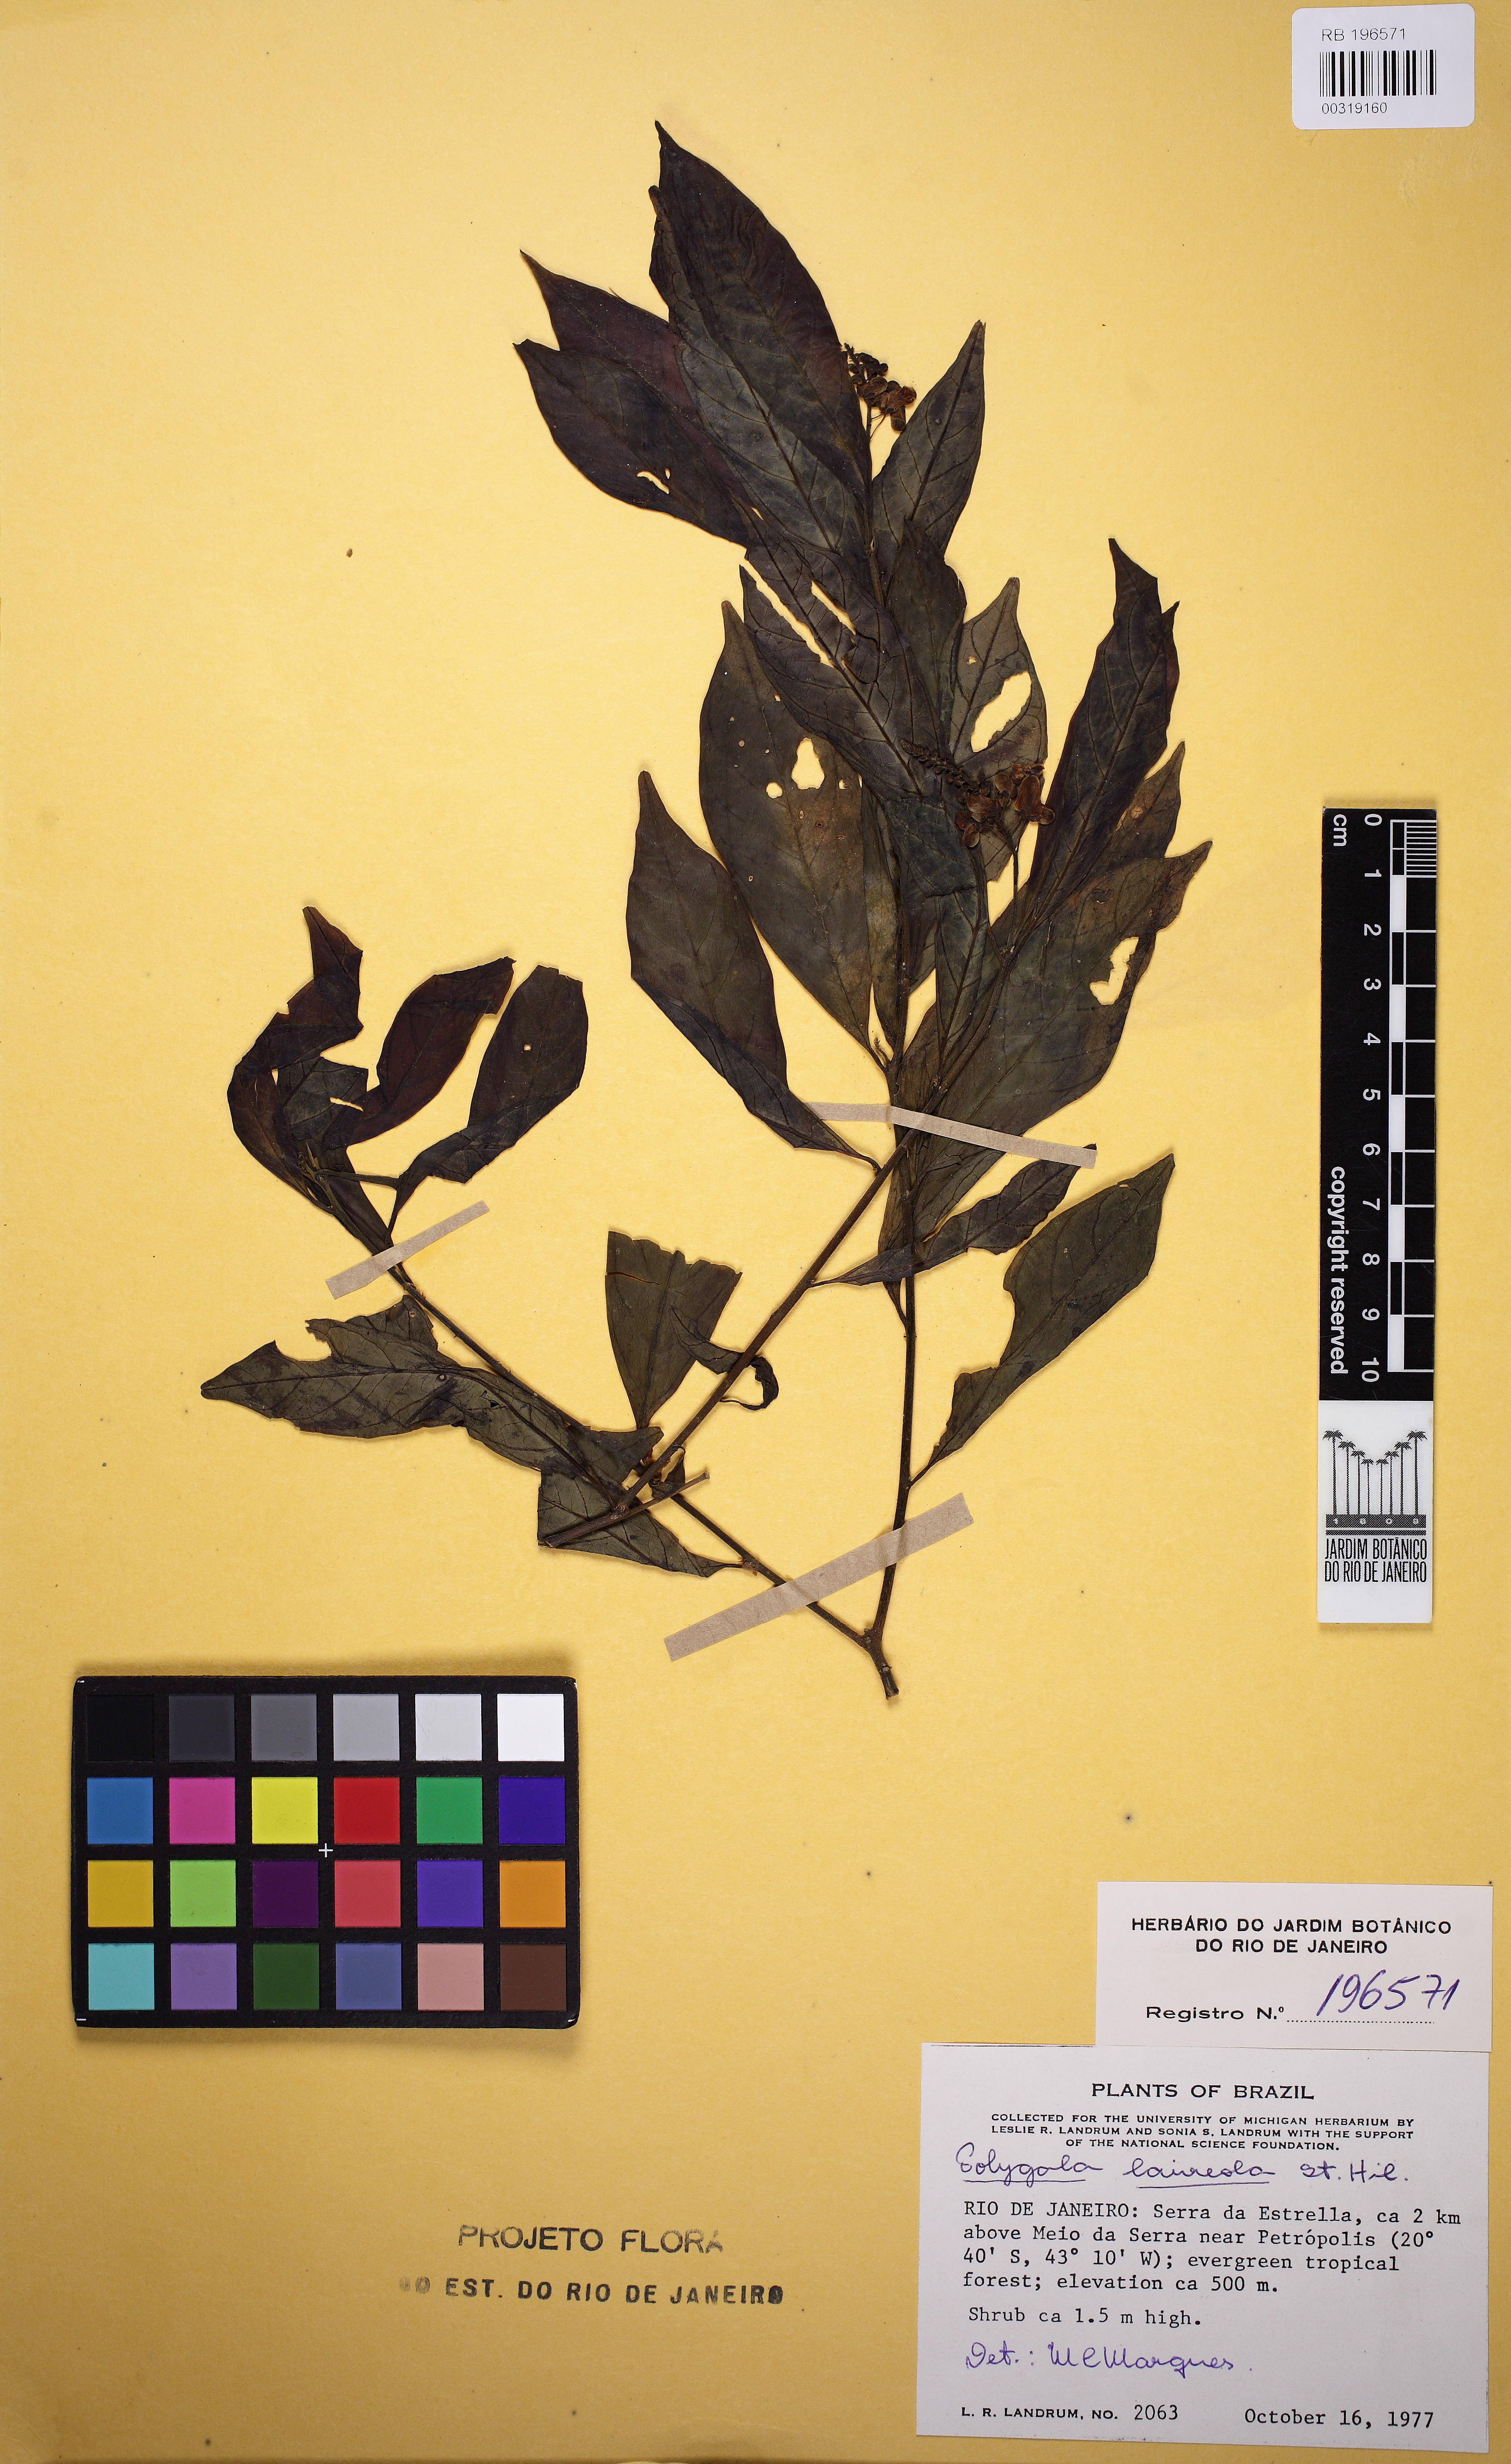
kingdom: Plantae
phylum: Tracheophyta
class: Magnoliopsida
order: Fabales
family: Polygalaceae
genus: Caamembeca
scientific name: Caamembeca salicifolia
